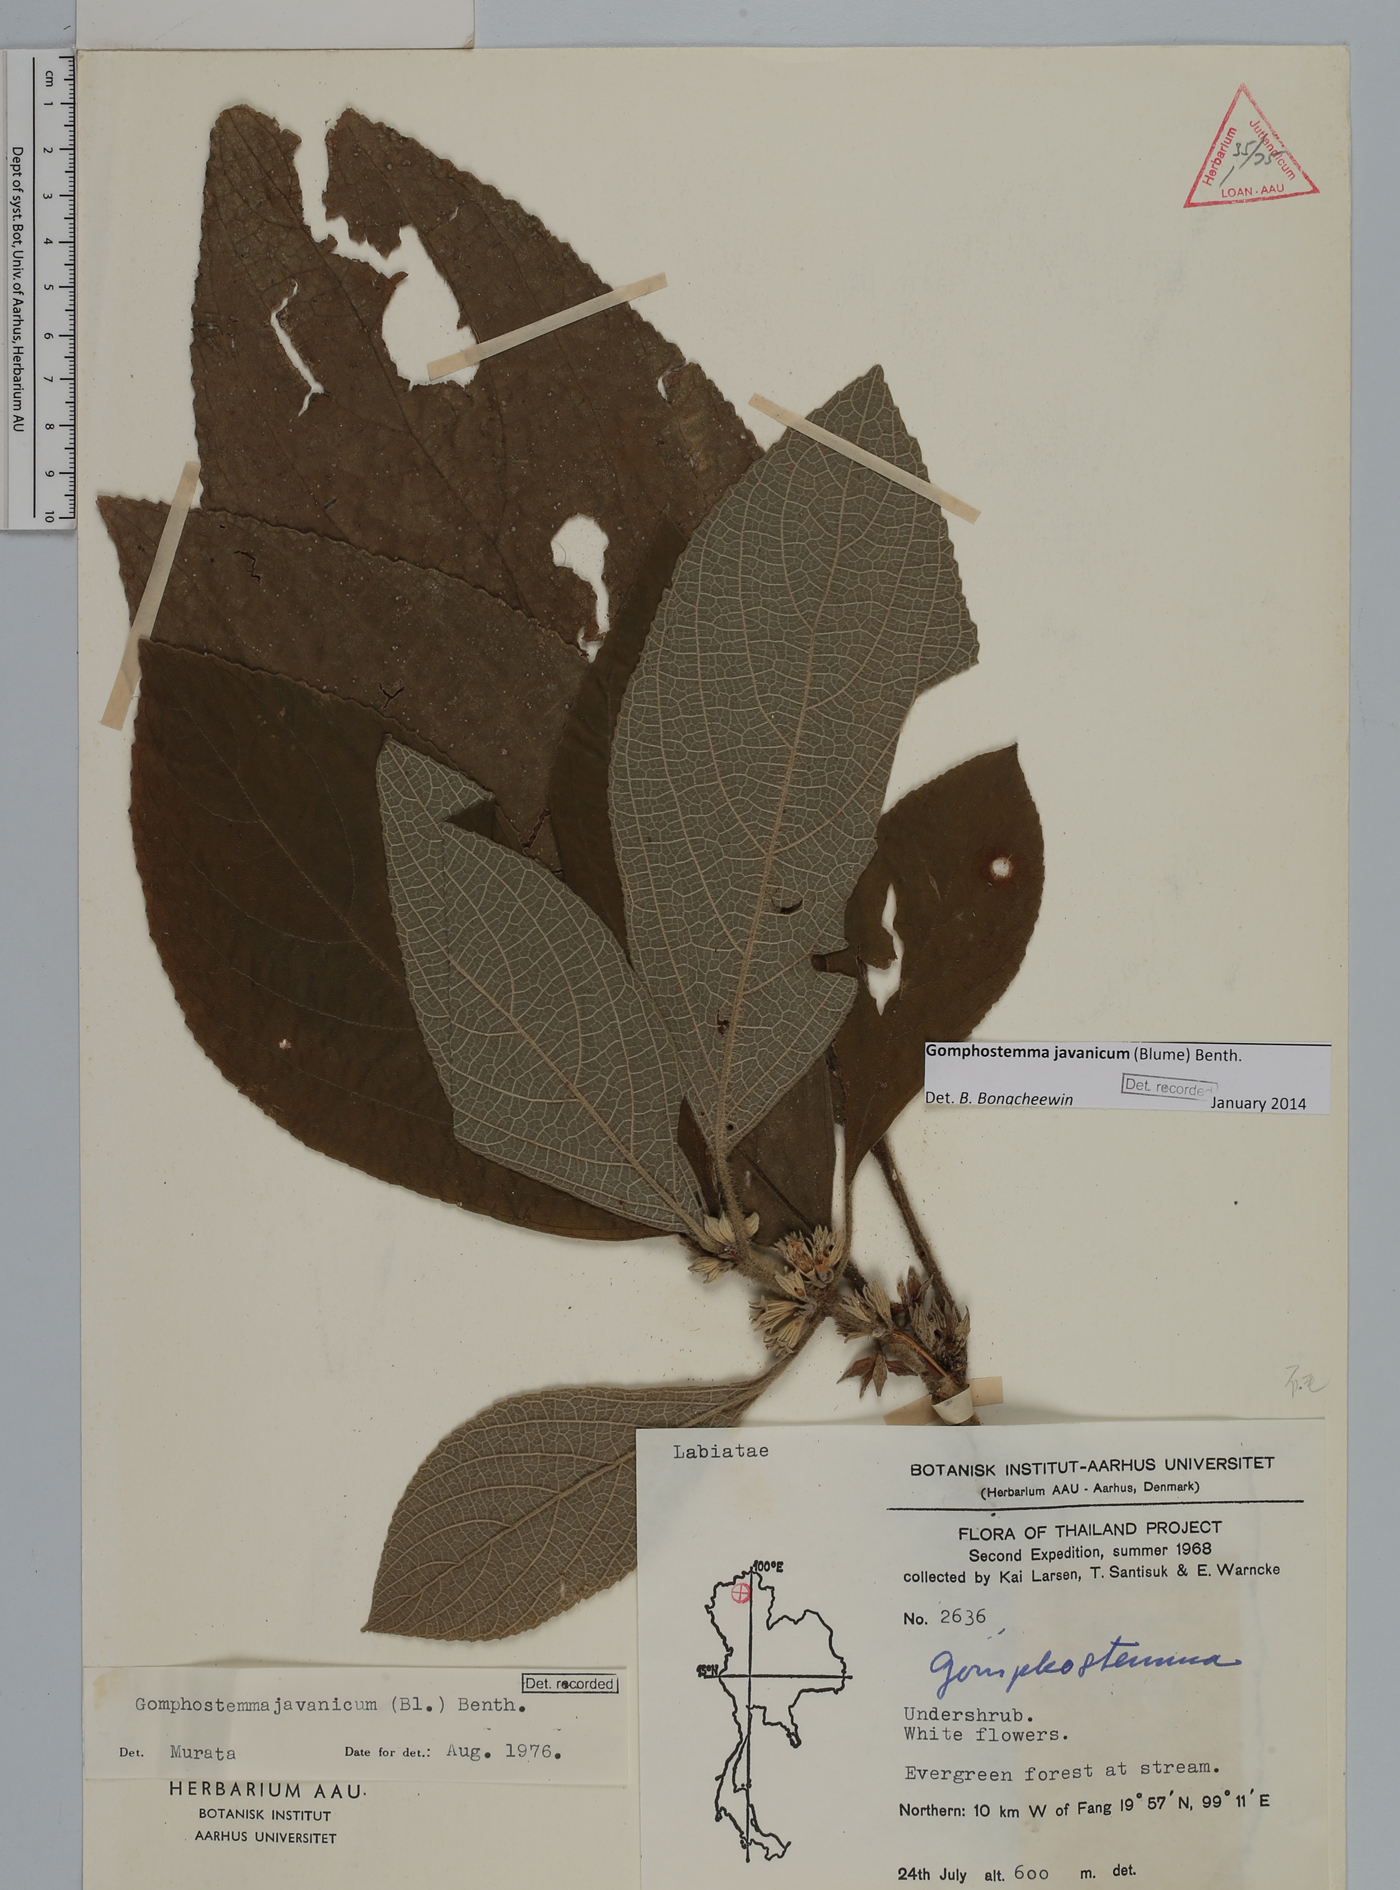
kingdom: Plantae
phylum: Tracheophyta
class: Magnoliopsida
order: Lamiales
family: Lamiaceae
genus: Gomphostemma
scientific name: Gomphostemma javanicum
